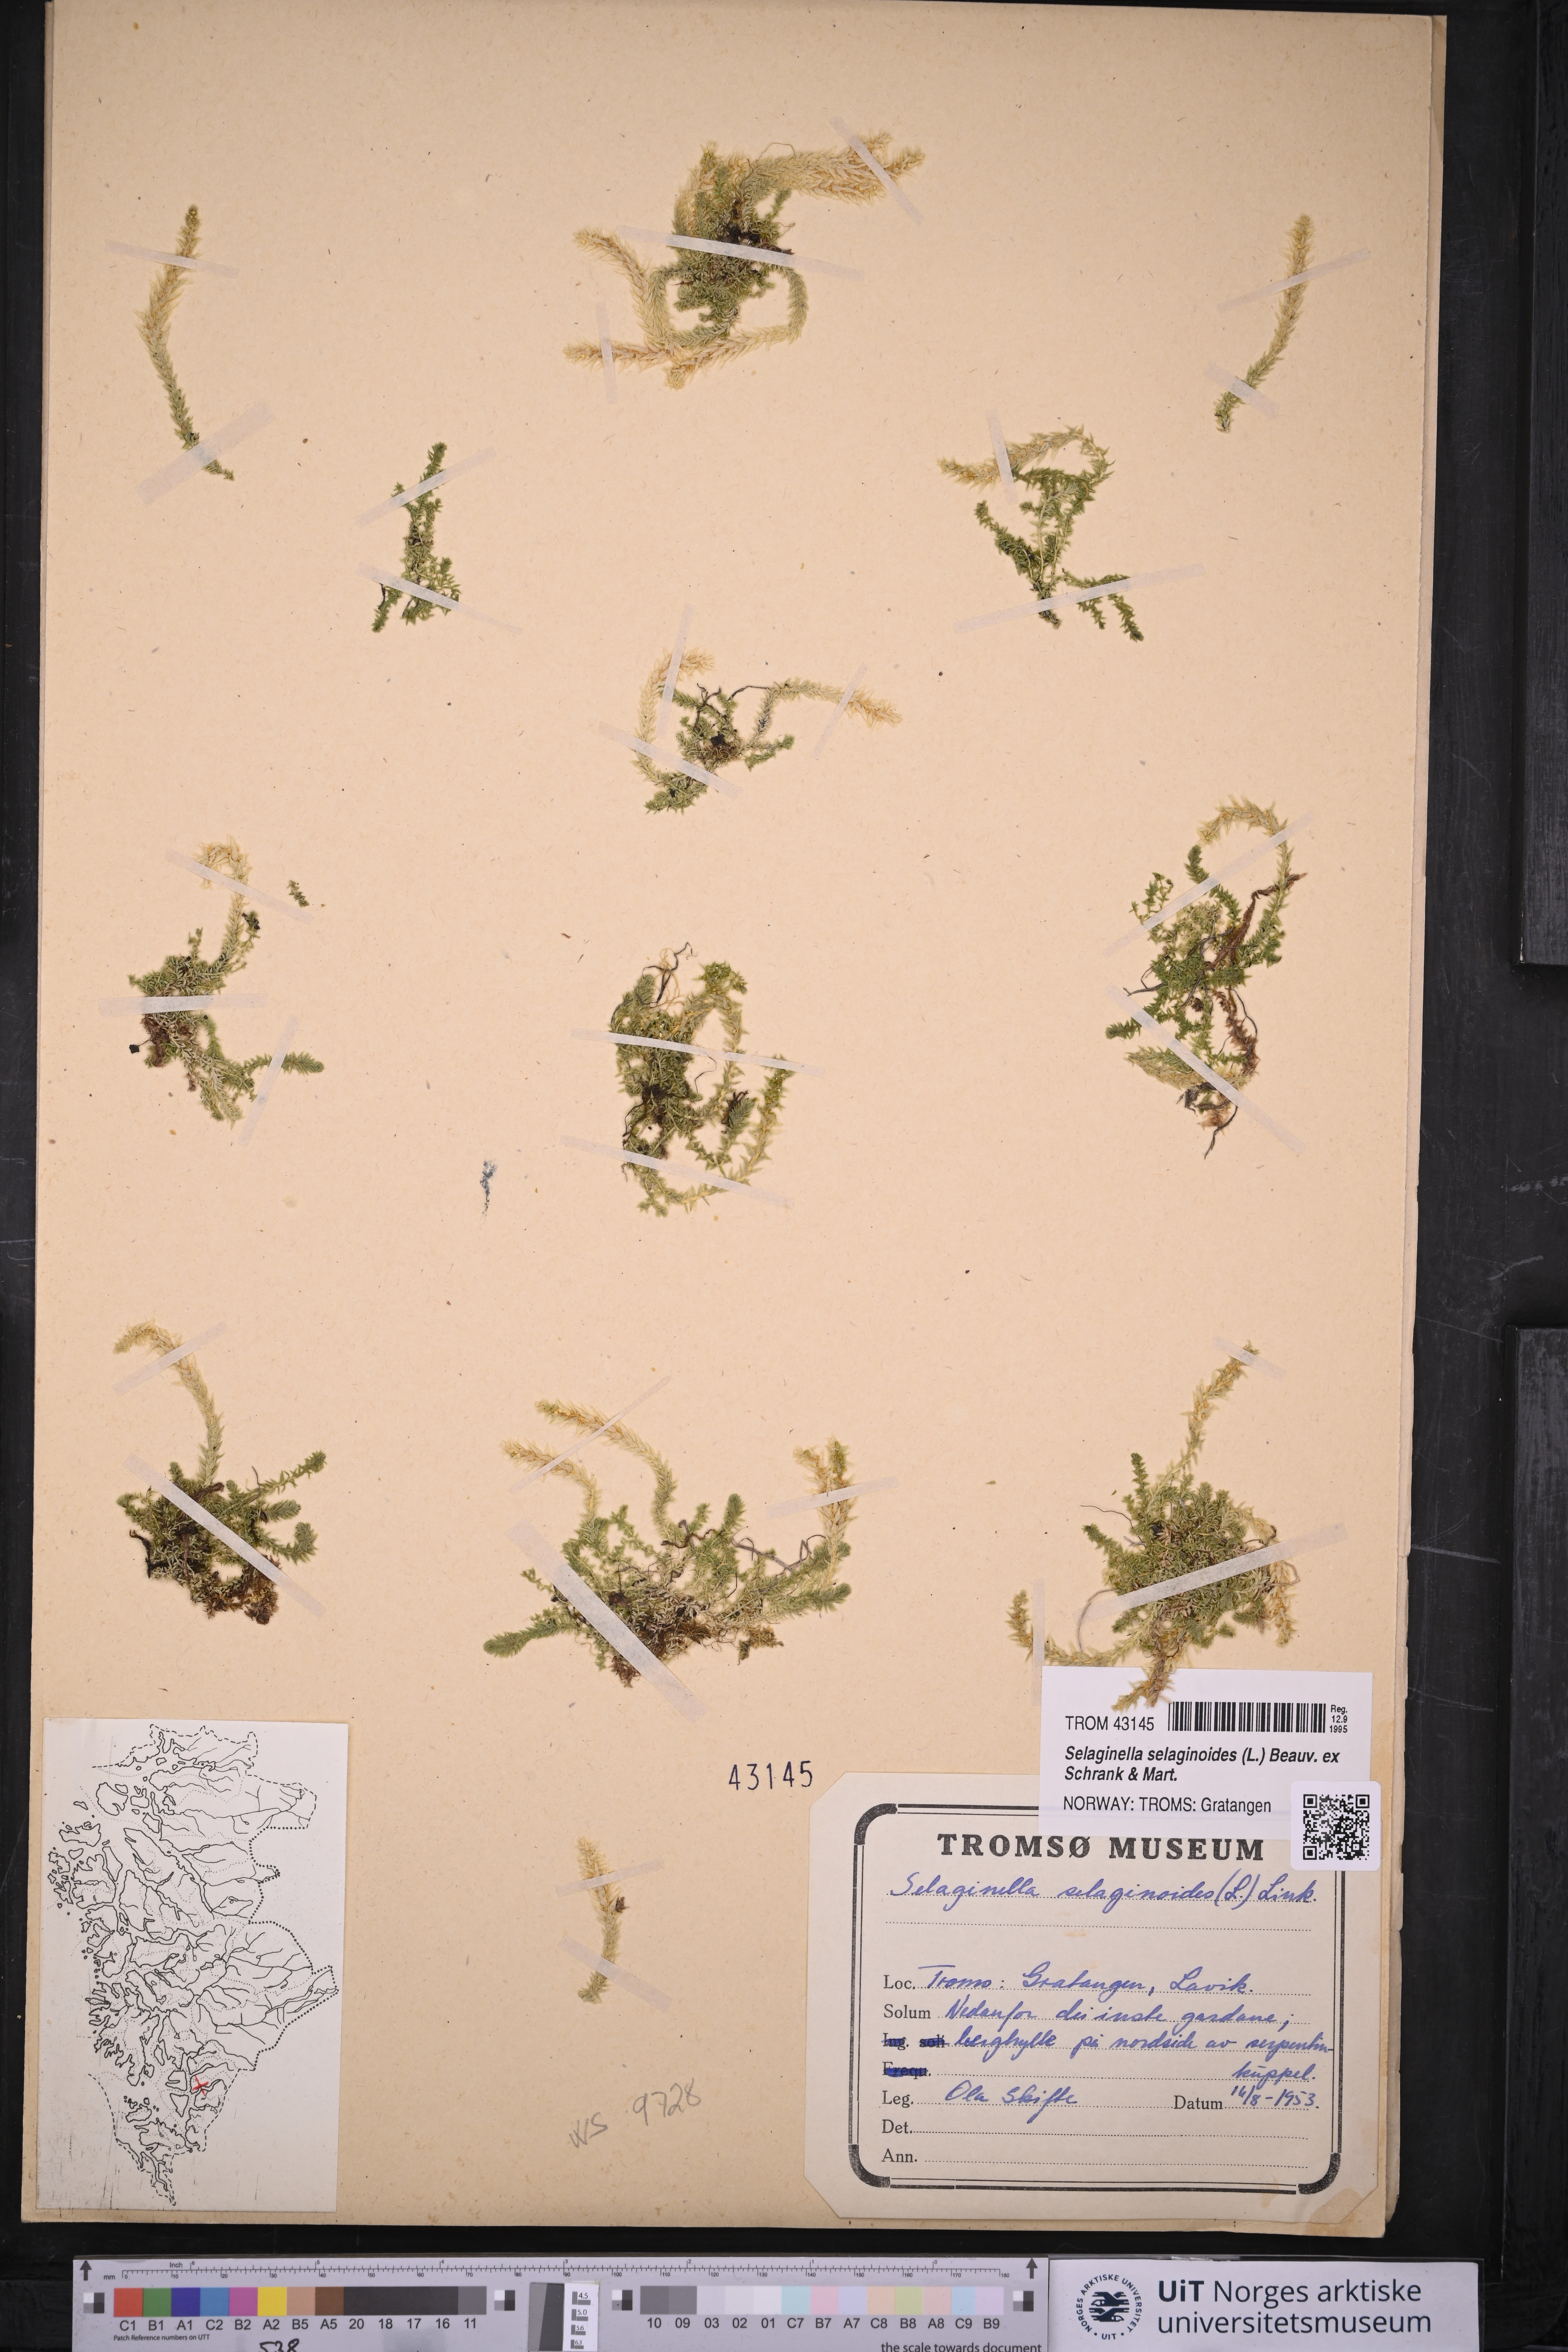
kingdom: Plantae
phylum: Tracheophyta
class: Lycopodiopsida
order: Selaginellales
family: Selaginellaceae
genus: Selaginella
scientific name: Selaginella selaginoides
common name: Prickly mountain-moss
